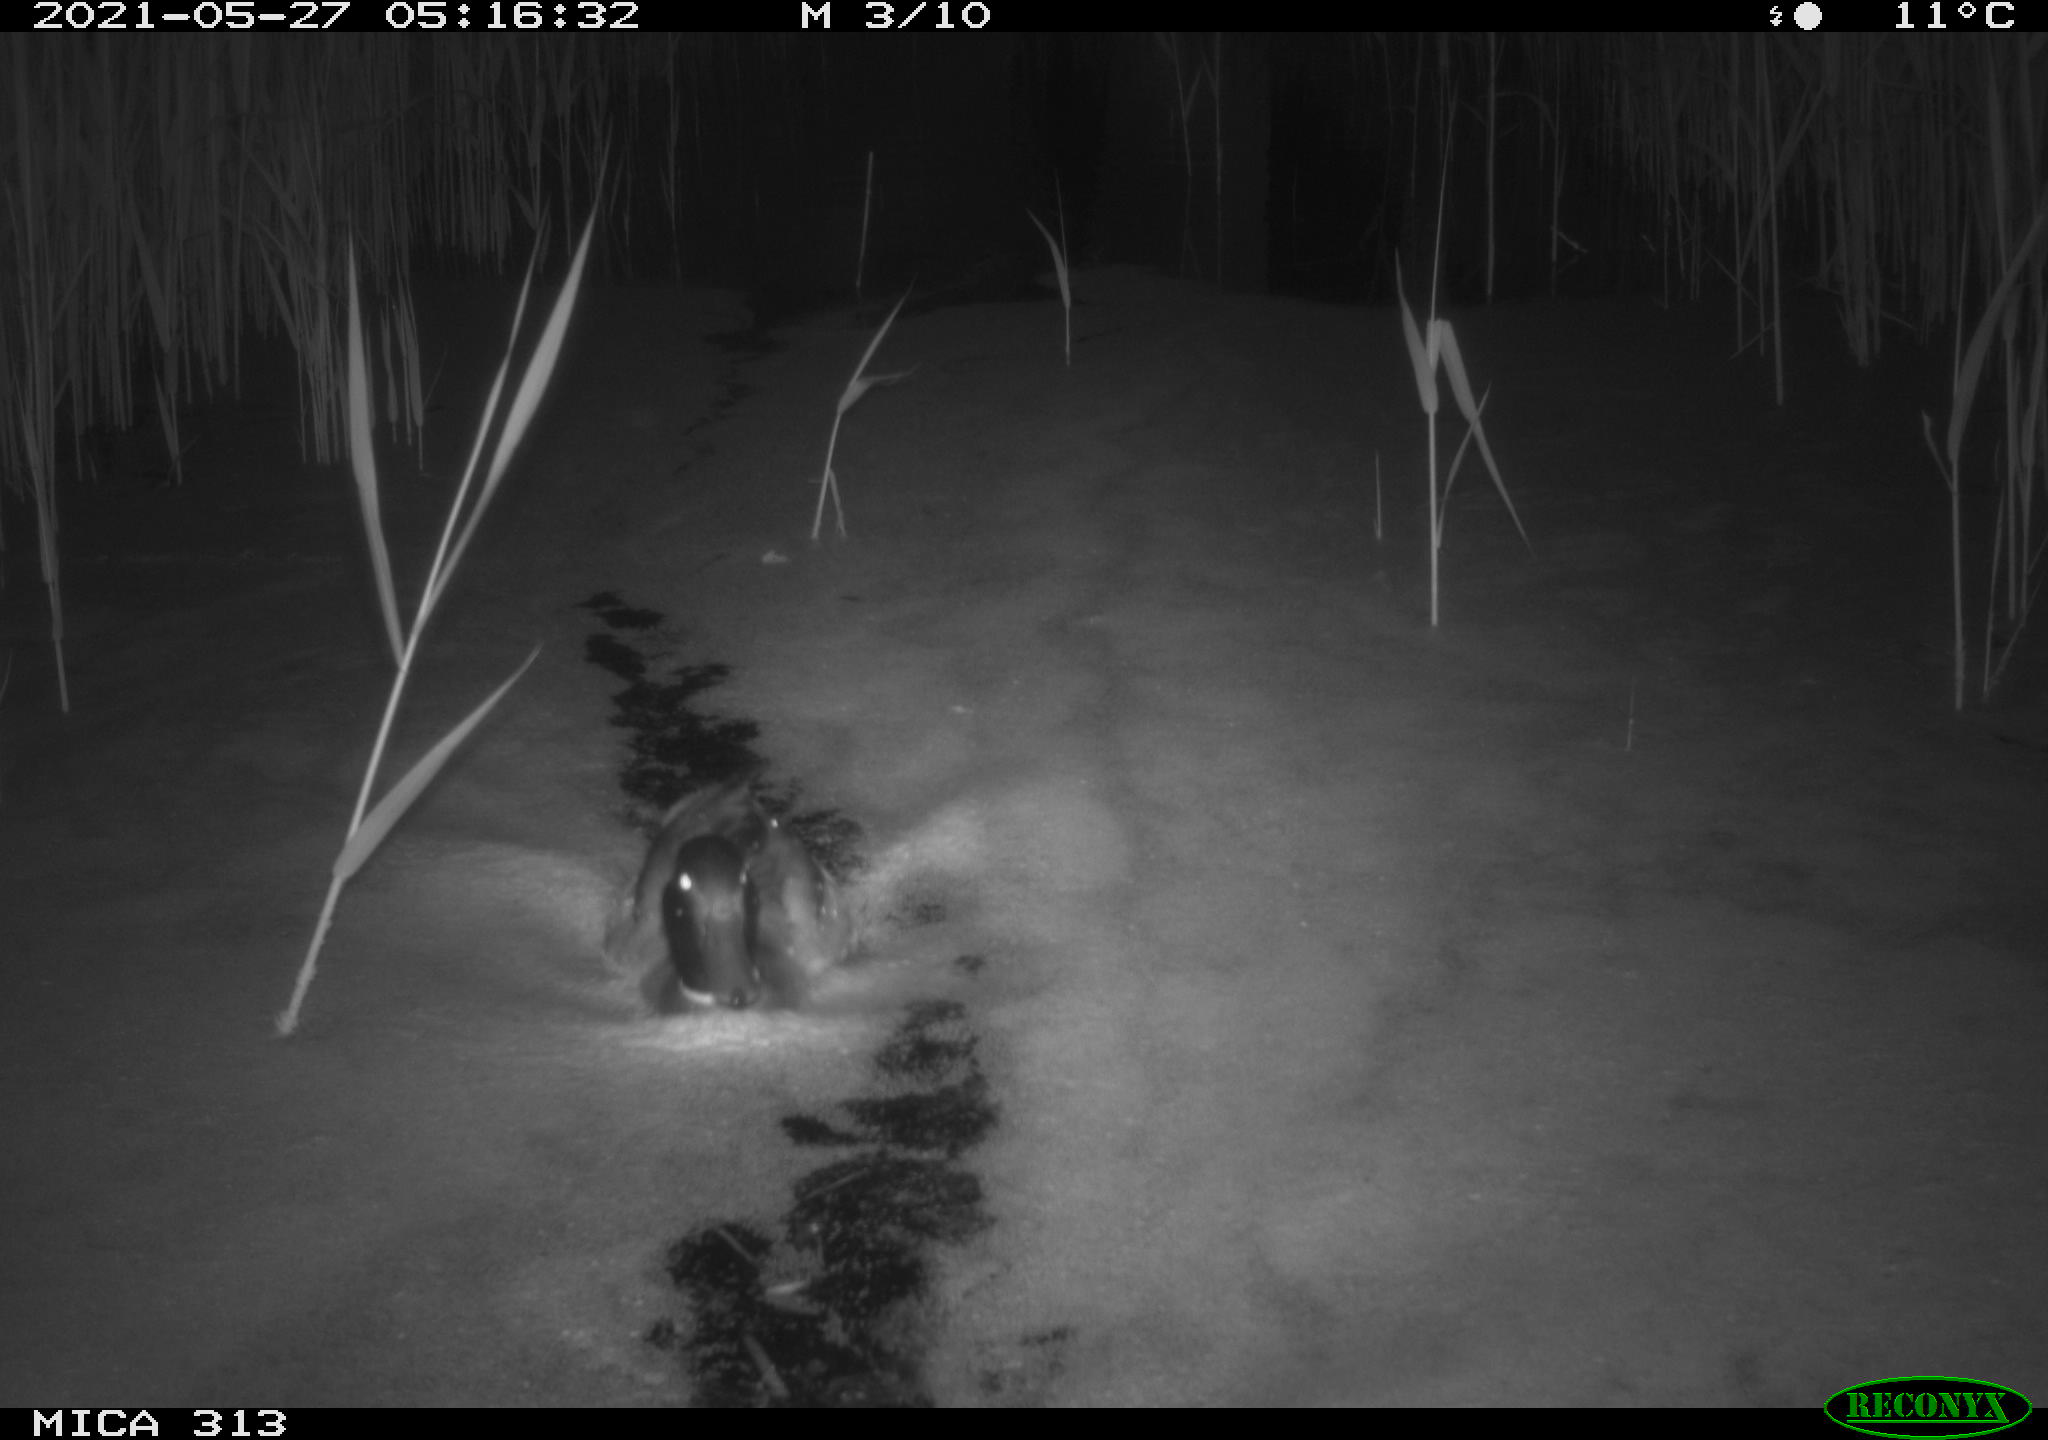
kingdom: Animalia
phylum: Chordata
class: Aves
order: Anseriformes
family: Anatidae
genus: Anas
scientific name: Anas platyrhynchos
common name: Mallard
